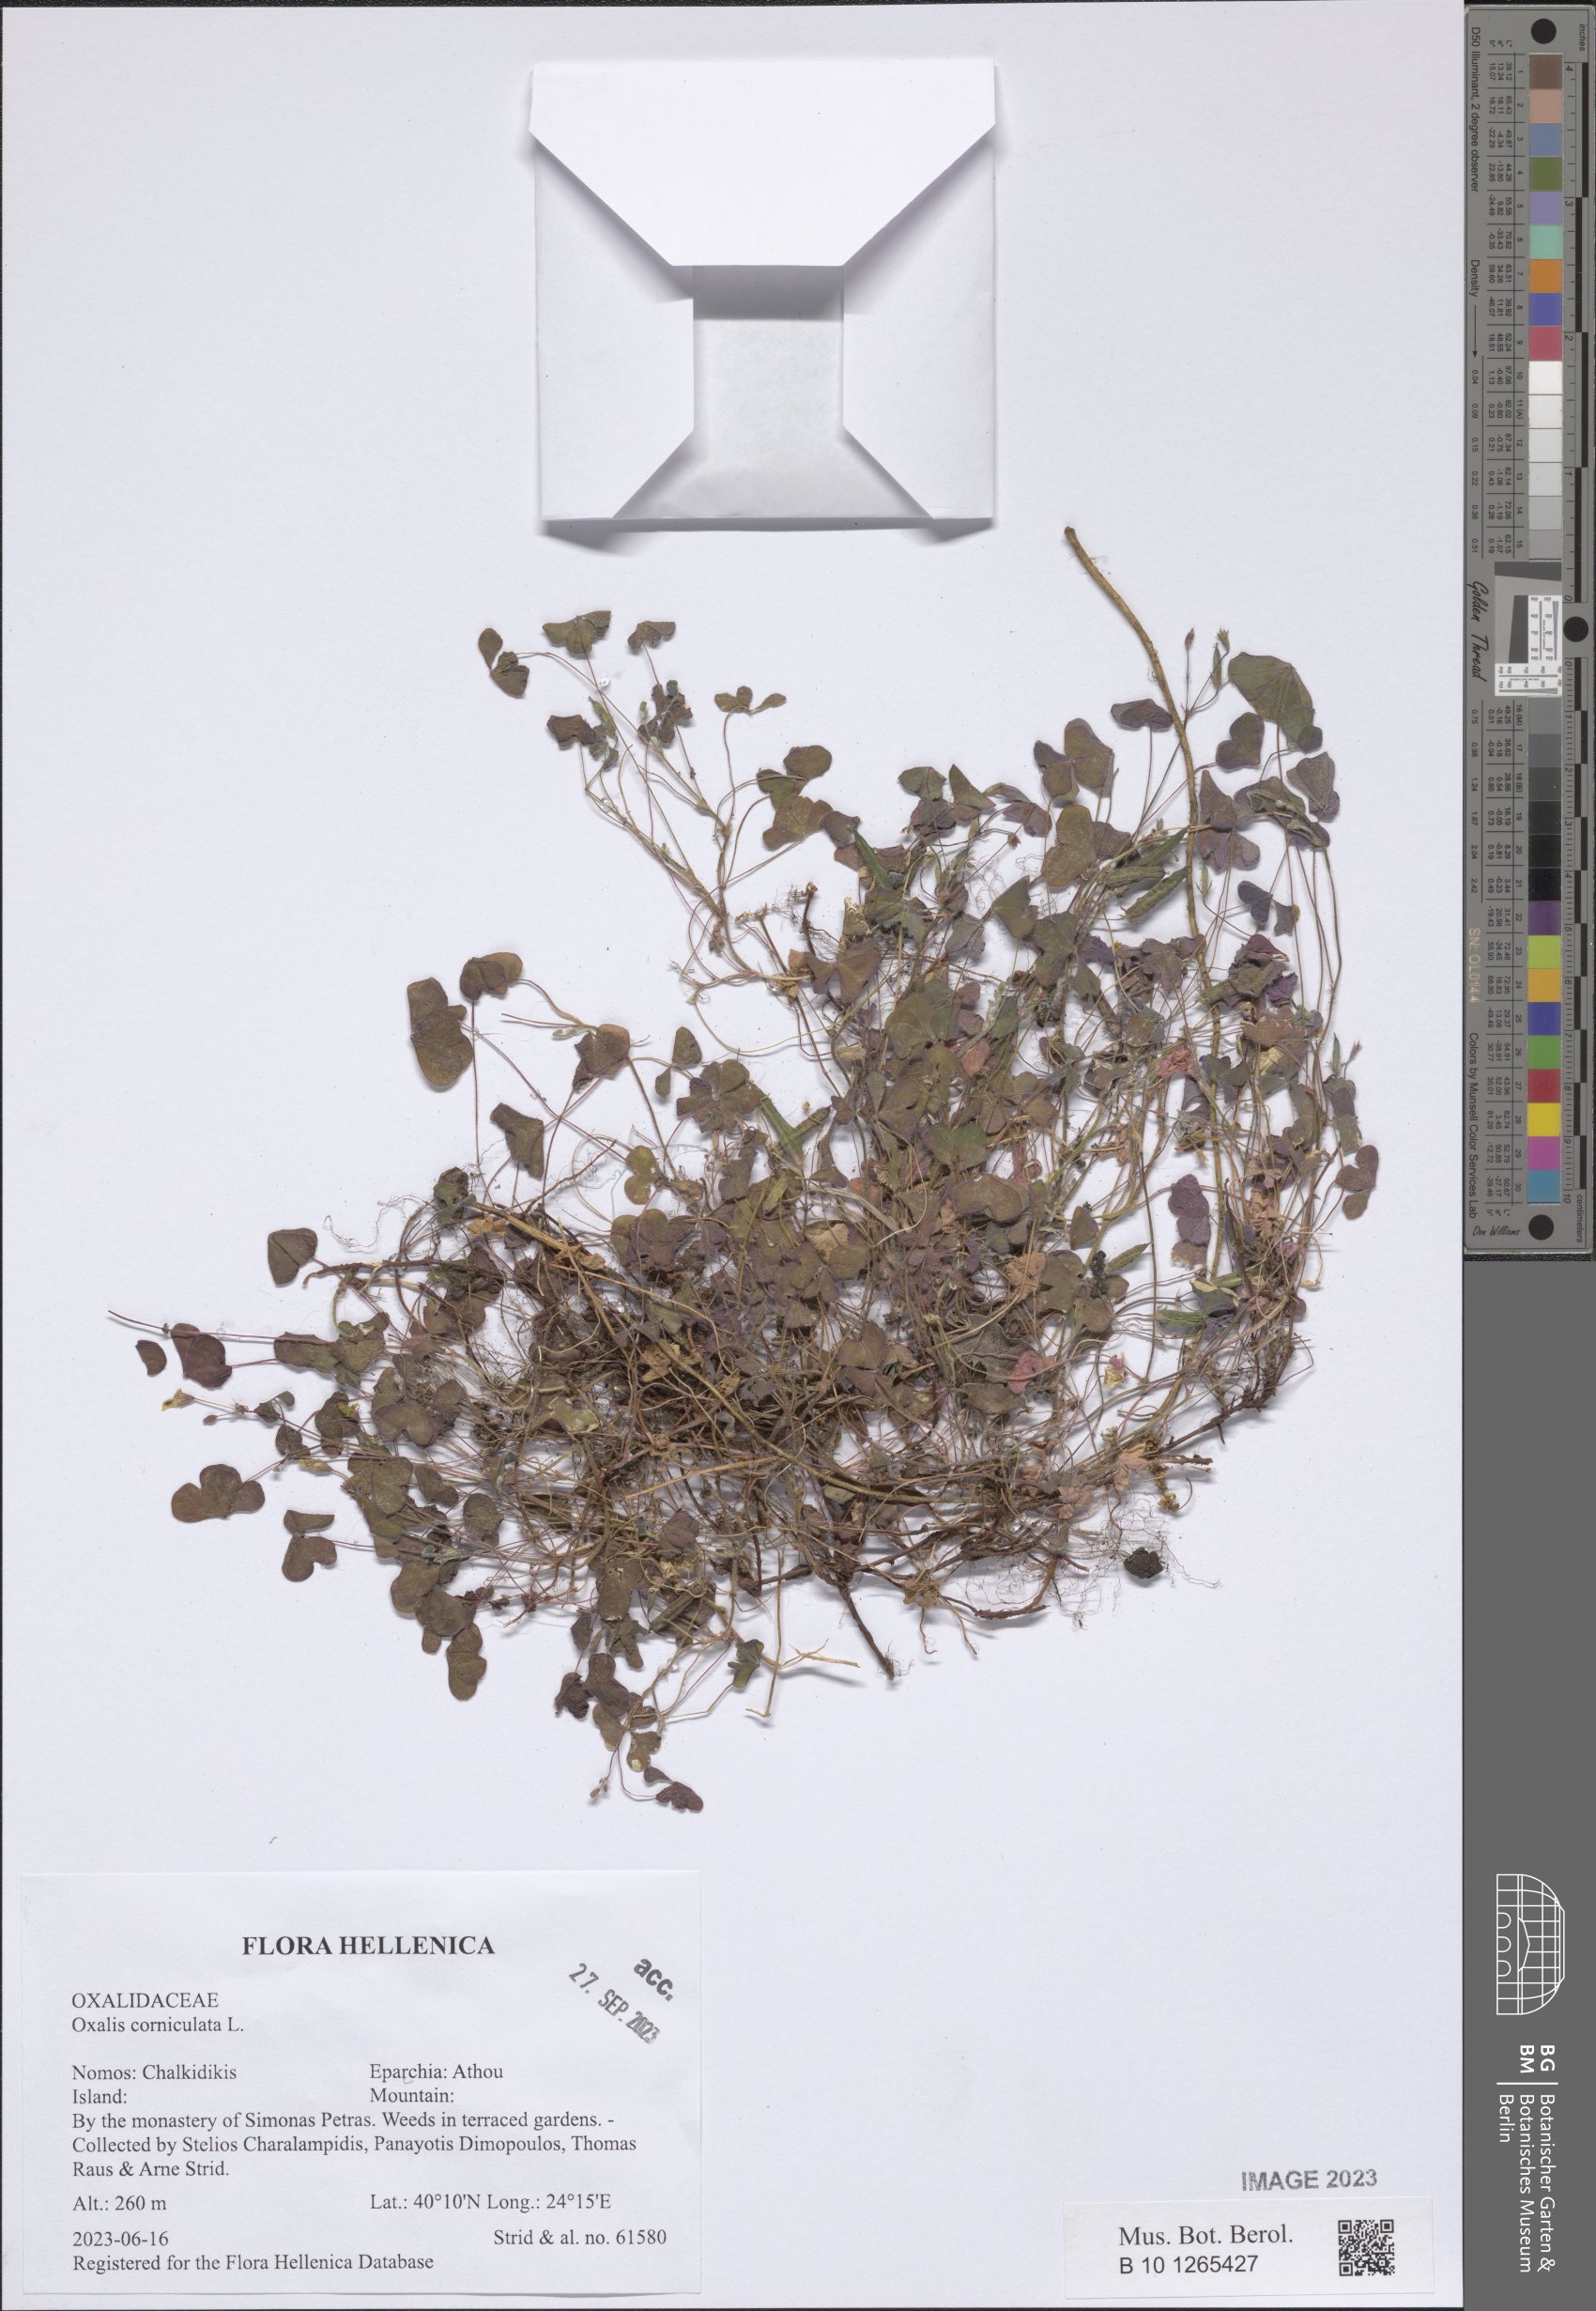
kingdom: Plantae
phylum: Tracheophyta
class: Magnoliopsida
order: Oxalidales
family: Oxalidaceae
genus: Oxalis
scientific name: Oxalis corniculata
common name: Procumbent yellow-sorrel
